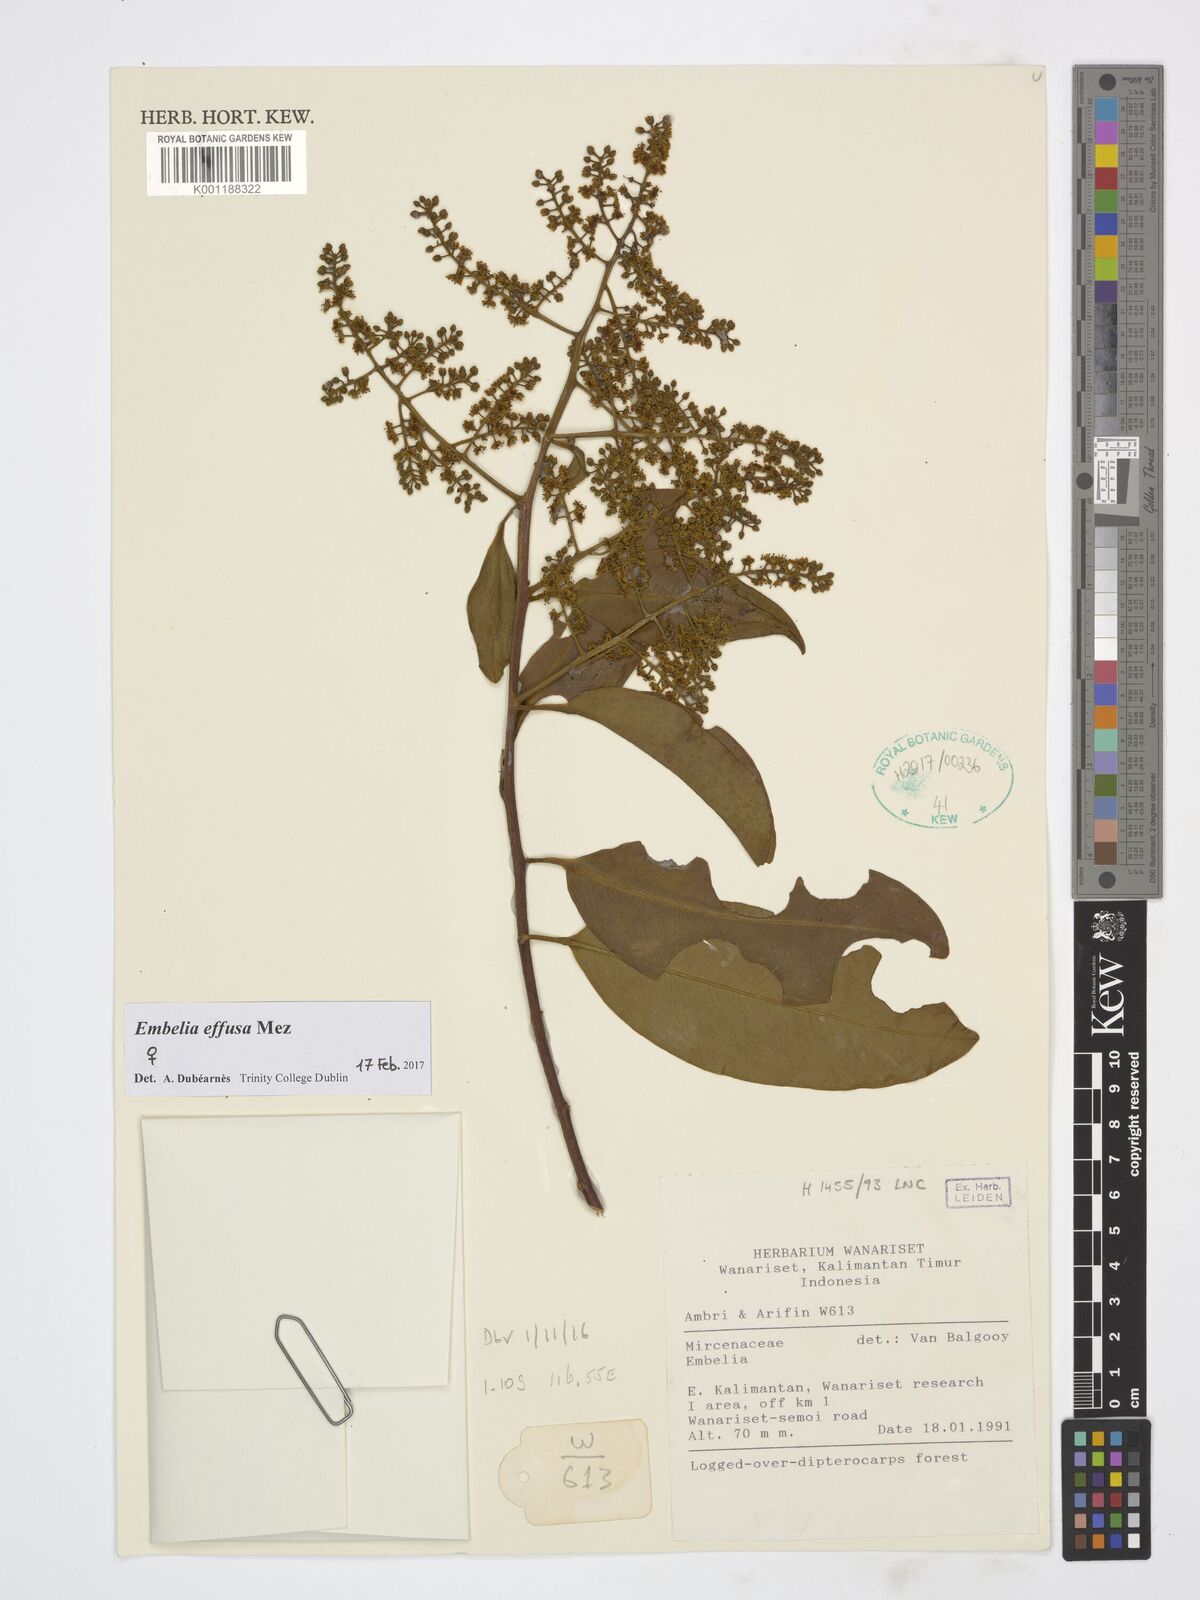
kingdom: Plantae
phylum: Tracheophyta
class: Magnoliopsida
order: Ericales
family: Primulaceae
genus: Embelia
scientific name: Embelia effusa
